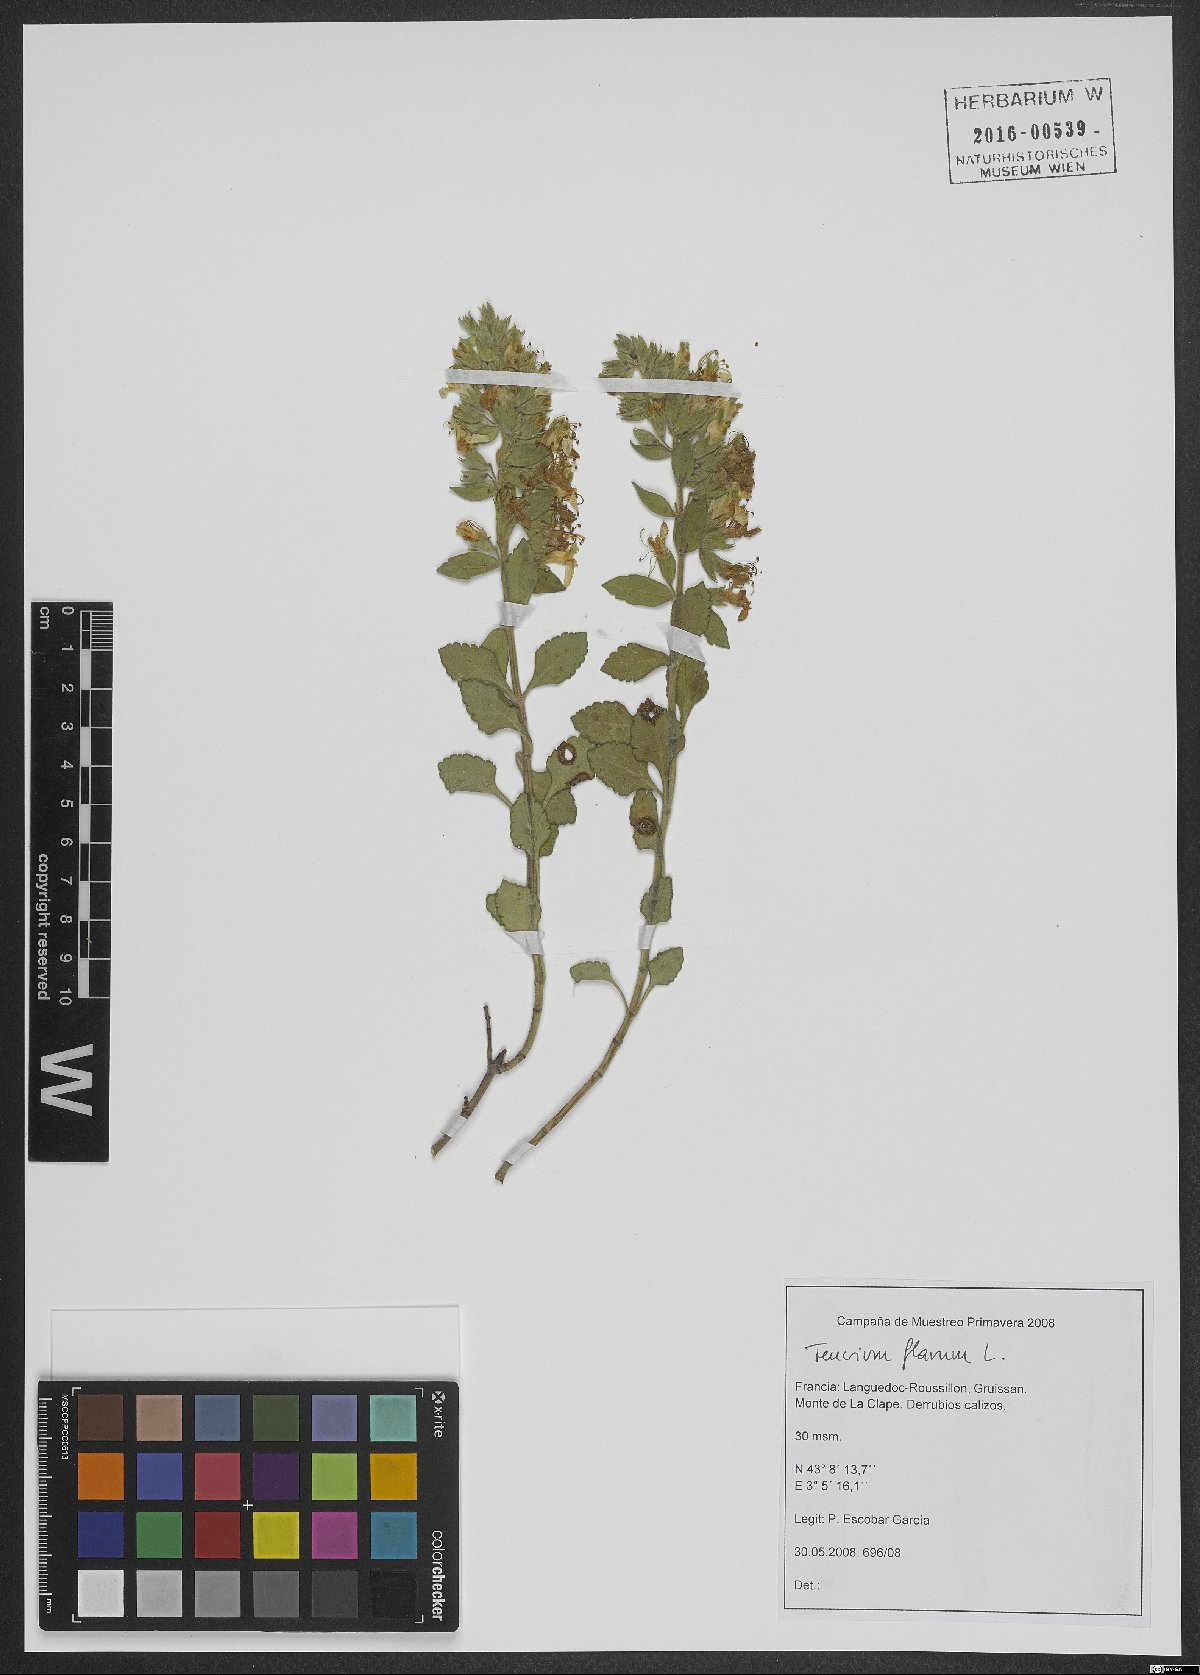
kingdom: Plantae
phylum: Tracheophyta
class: Magnoliopsida
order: Lamiales
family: Lamiaceae
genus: Teucrium
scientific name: Teucrium flavum
